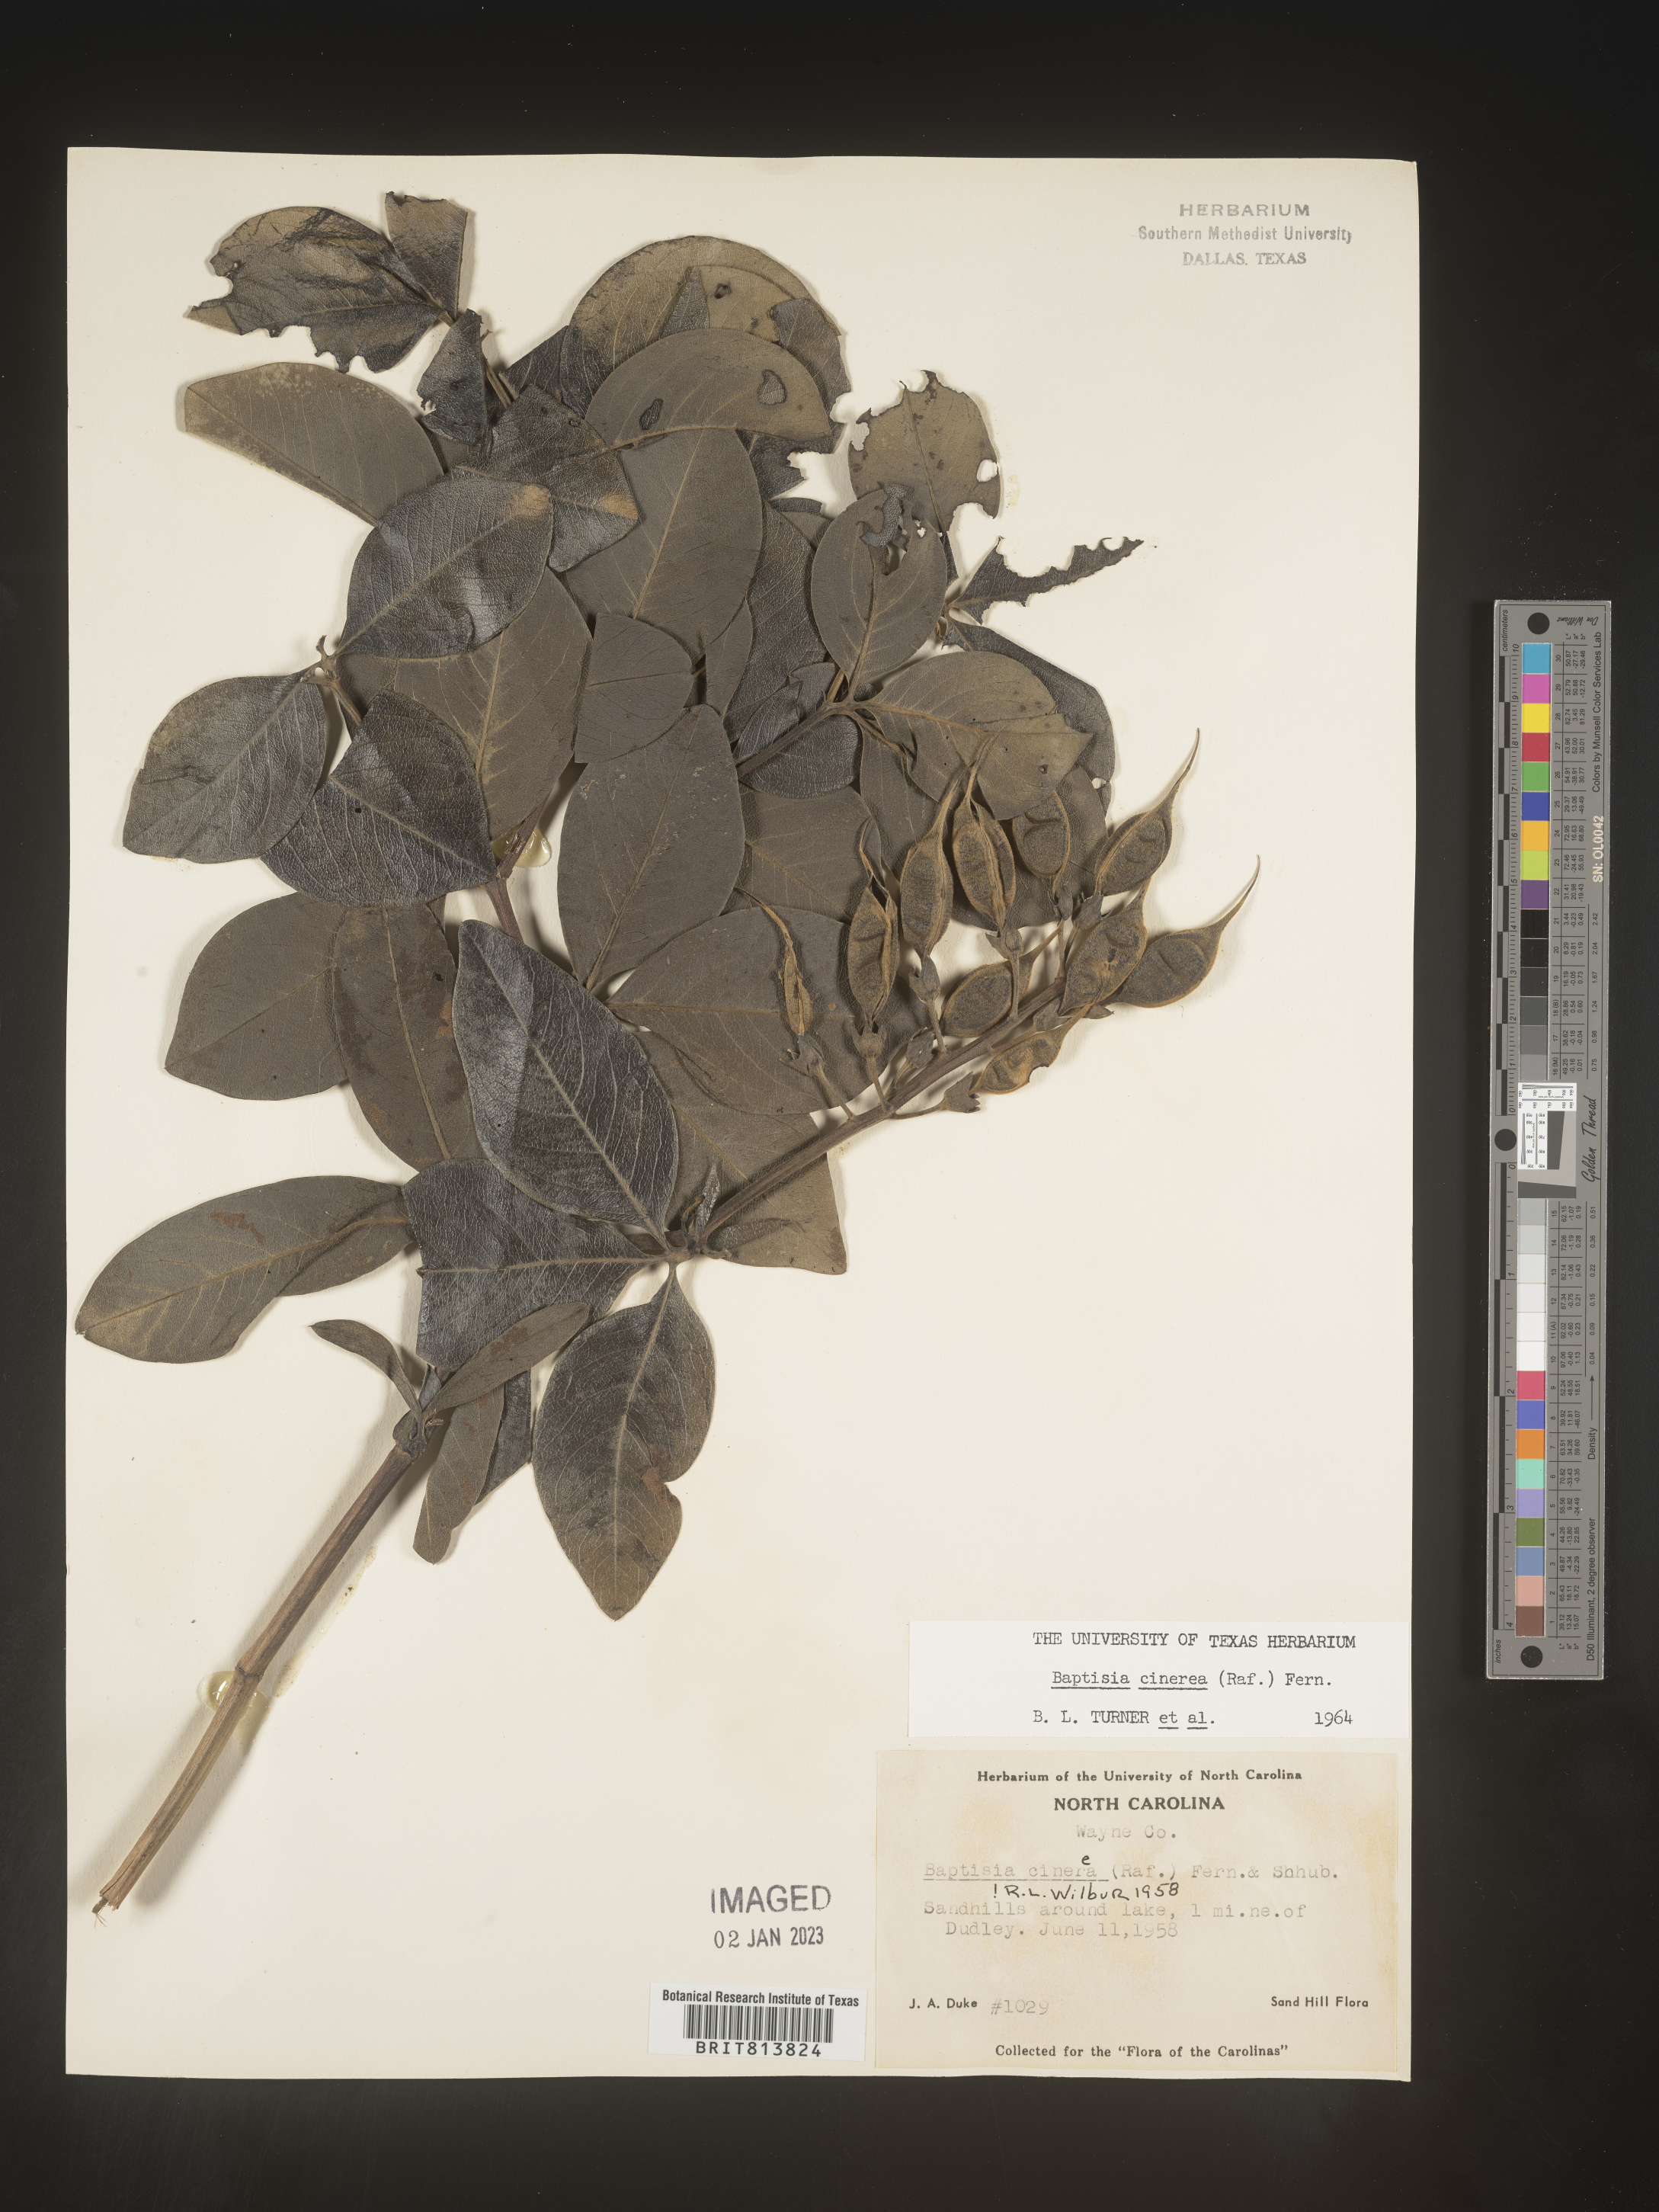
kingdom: Plantae
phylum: Tracheophyta
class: Magnoliopsida
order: Fabales
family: Fabaceae
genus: Baptisia
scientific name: Baptisia cinerea
